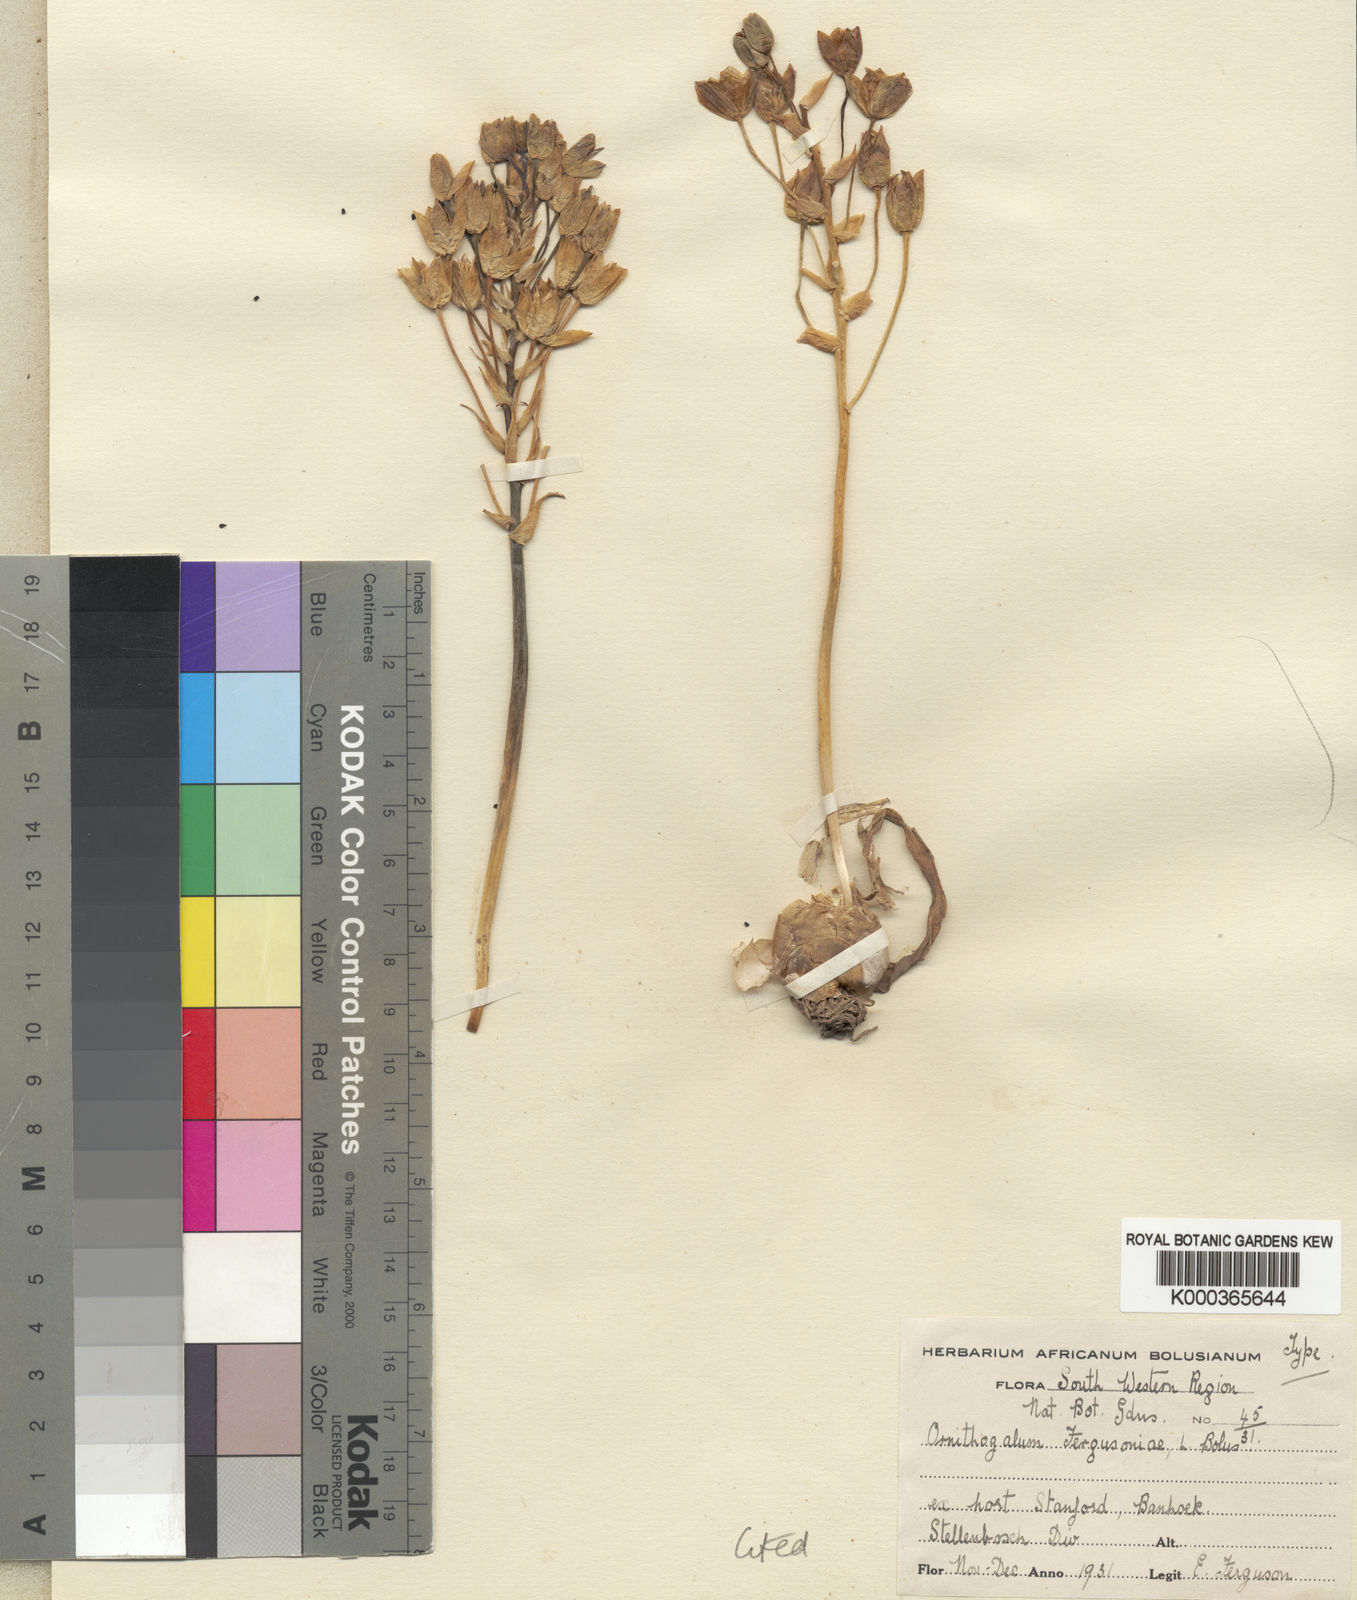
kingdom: Plantae
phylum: Tracheophyta
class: Liliopsida
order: Asparagales
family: Asparagaceae
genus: Ornithogalum
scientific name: Ornithogalum dubium
